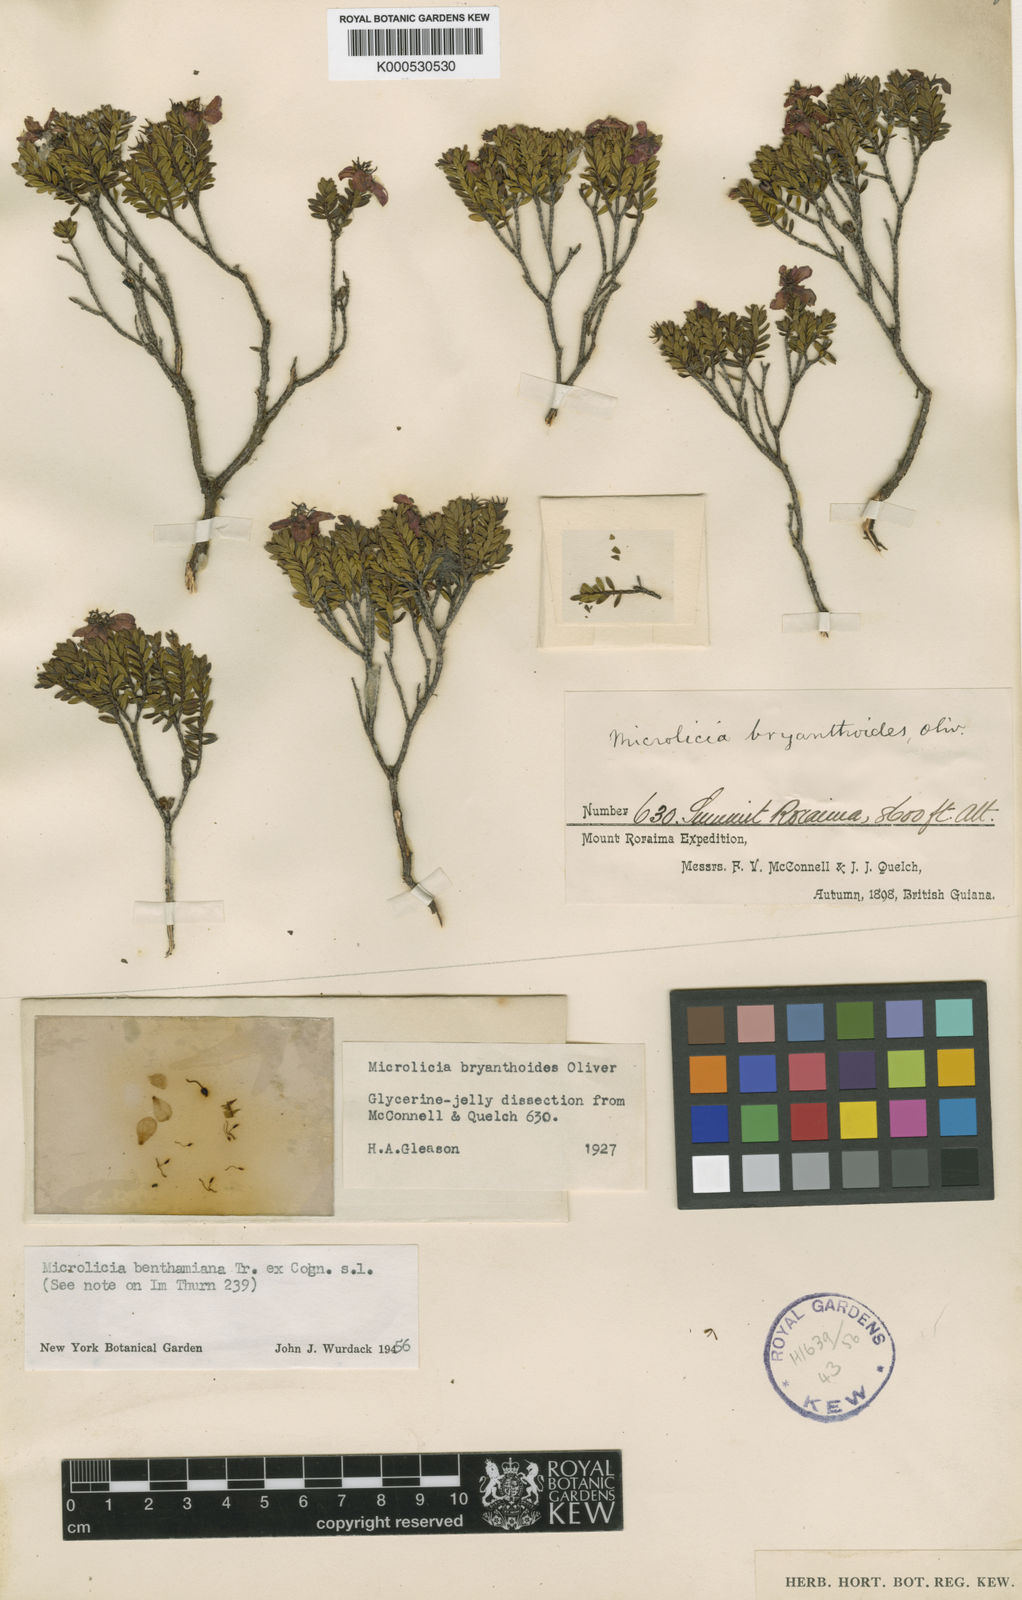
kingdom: Plantae
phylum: Tracheophyta
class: Magnoliopsida
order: Myrtales
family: Melastomataceae
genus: Microlicia
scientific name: Microlicia benthamiana
